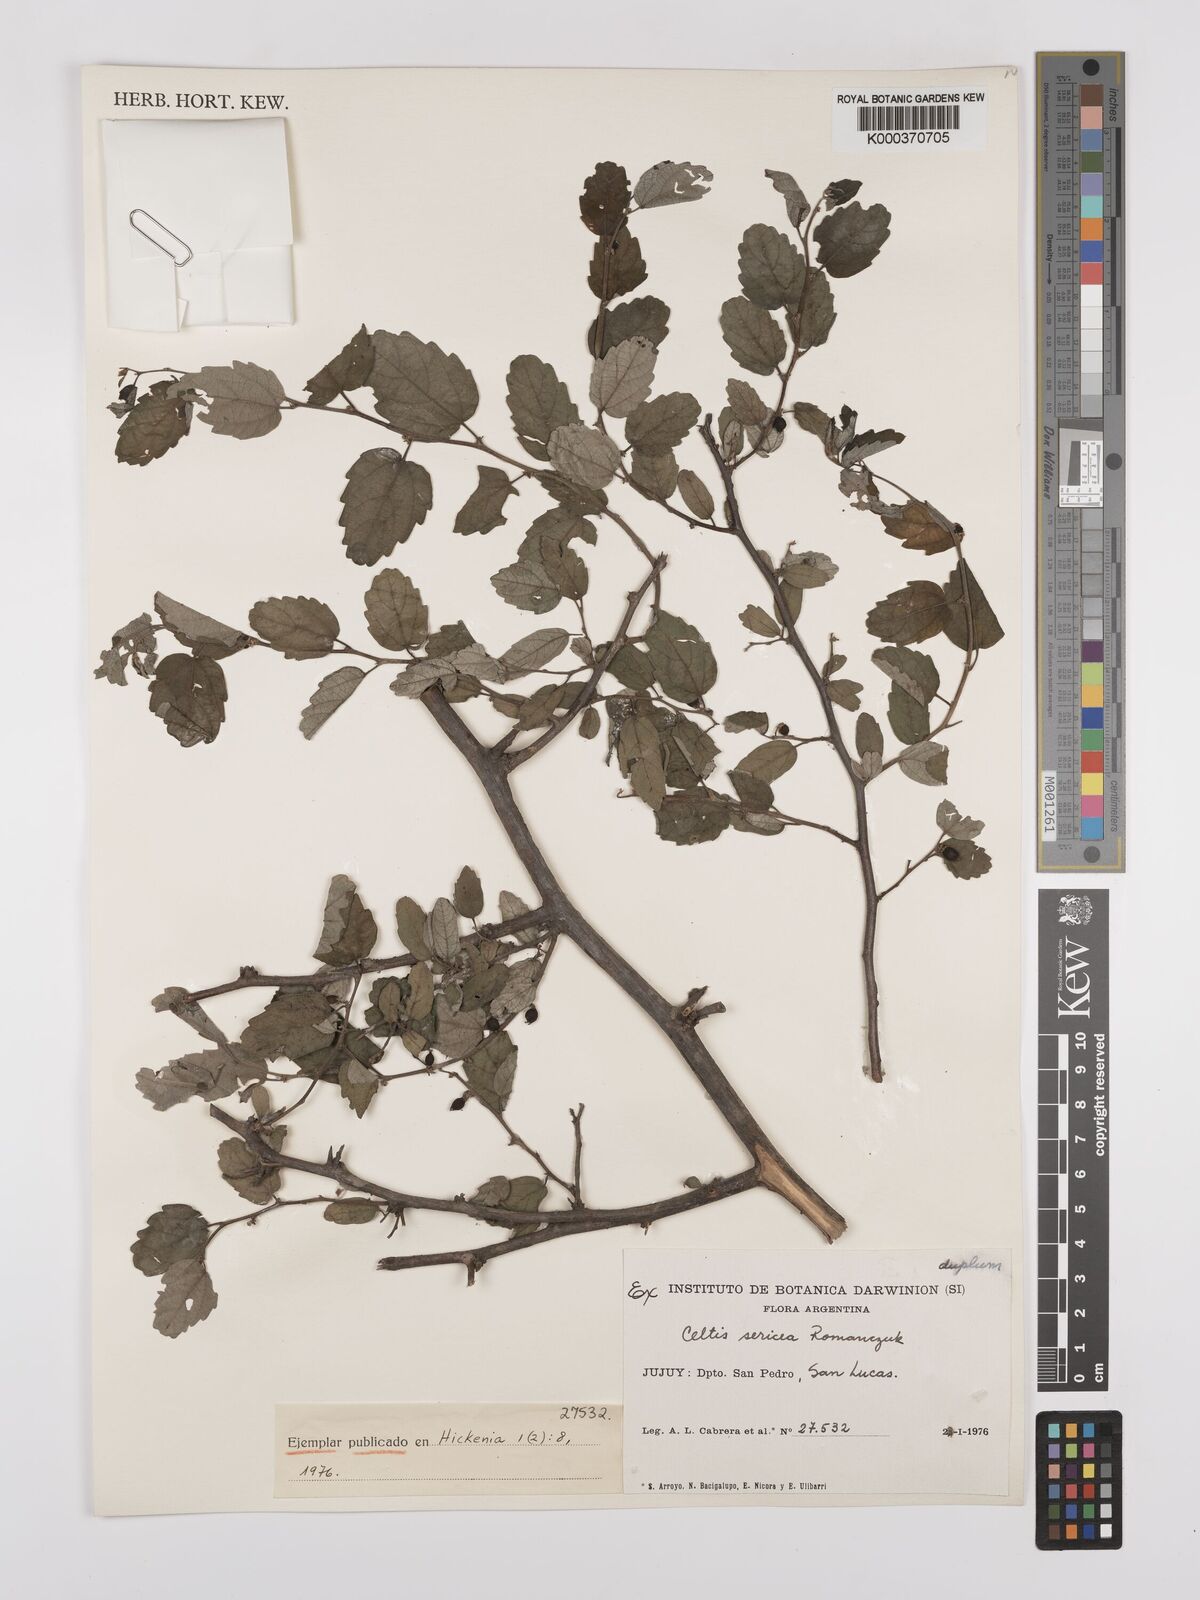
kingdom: Plantae
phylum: Tracheophyta
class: Magnoliopsida
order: Rosales
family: Cannabaceae
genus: Celtis
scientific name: Celtis chicape
